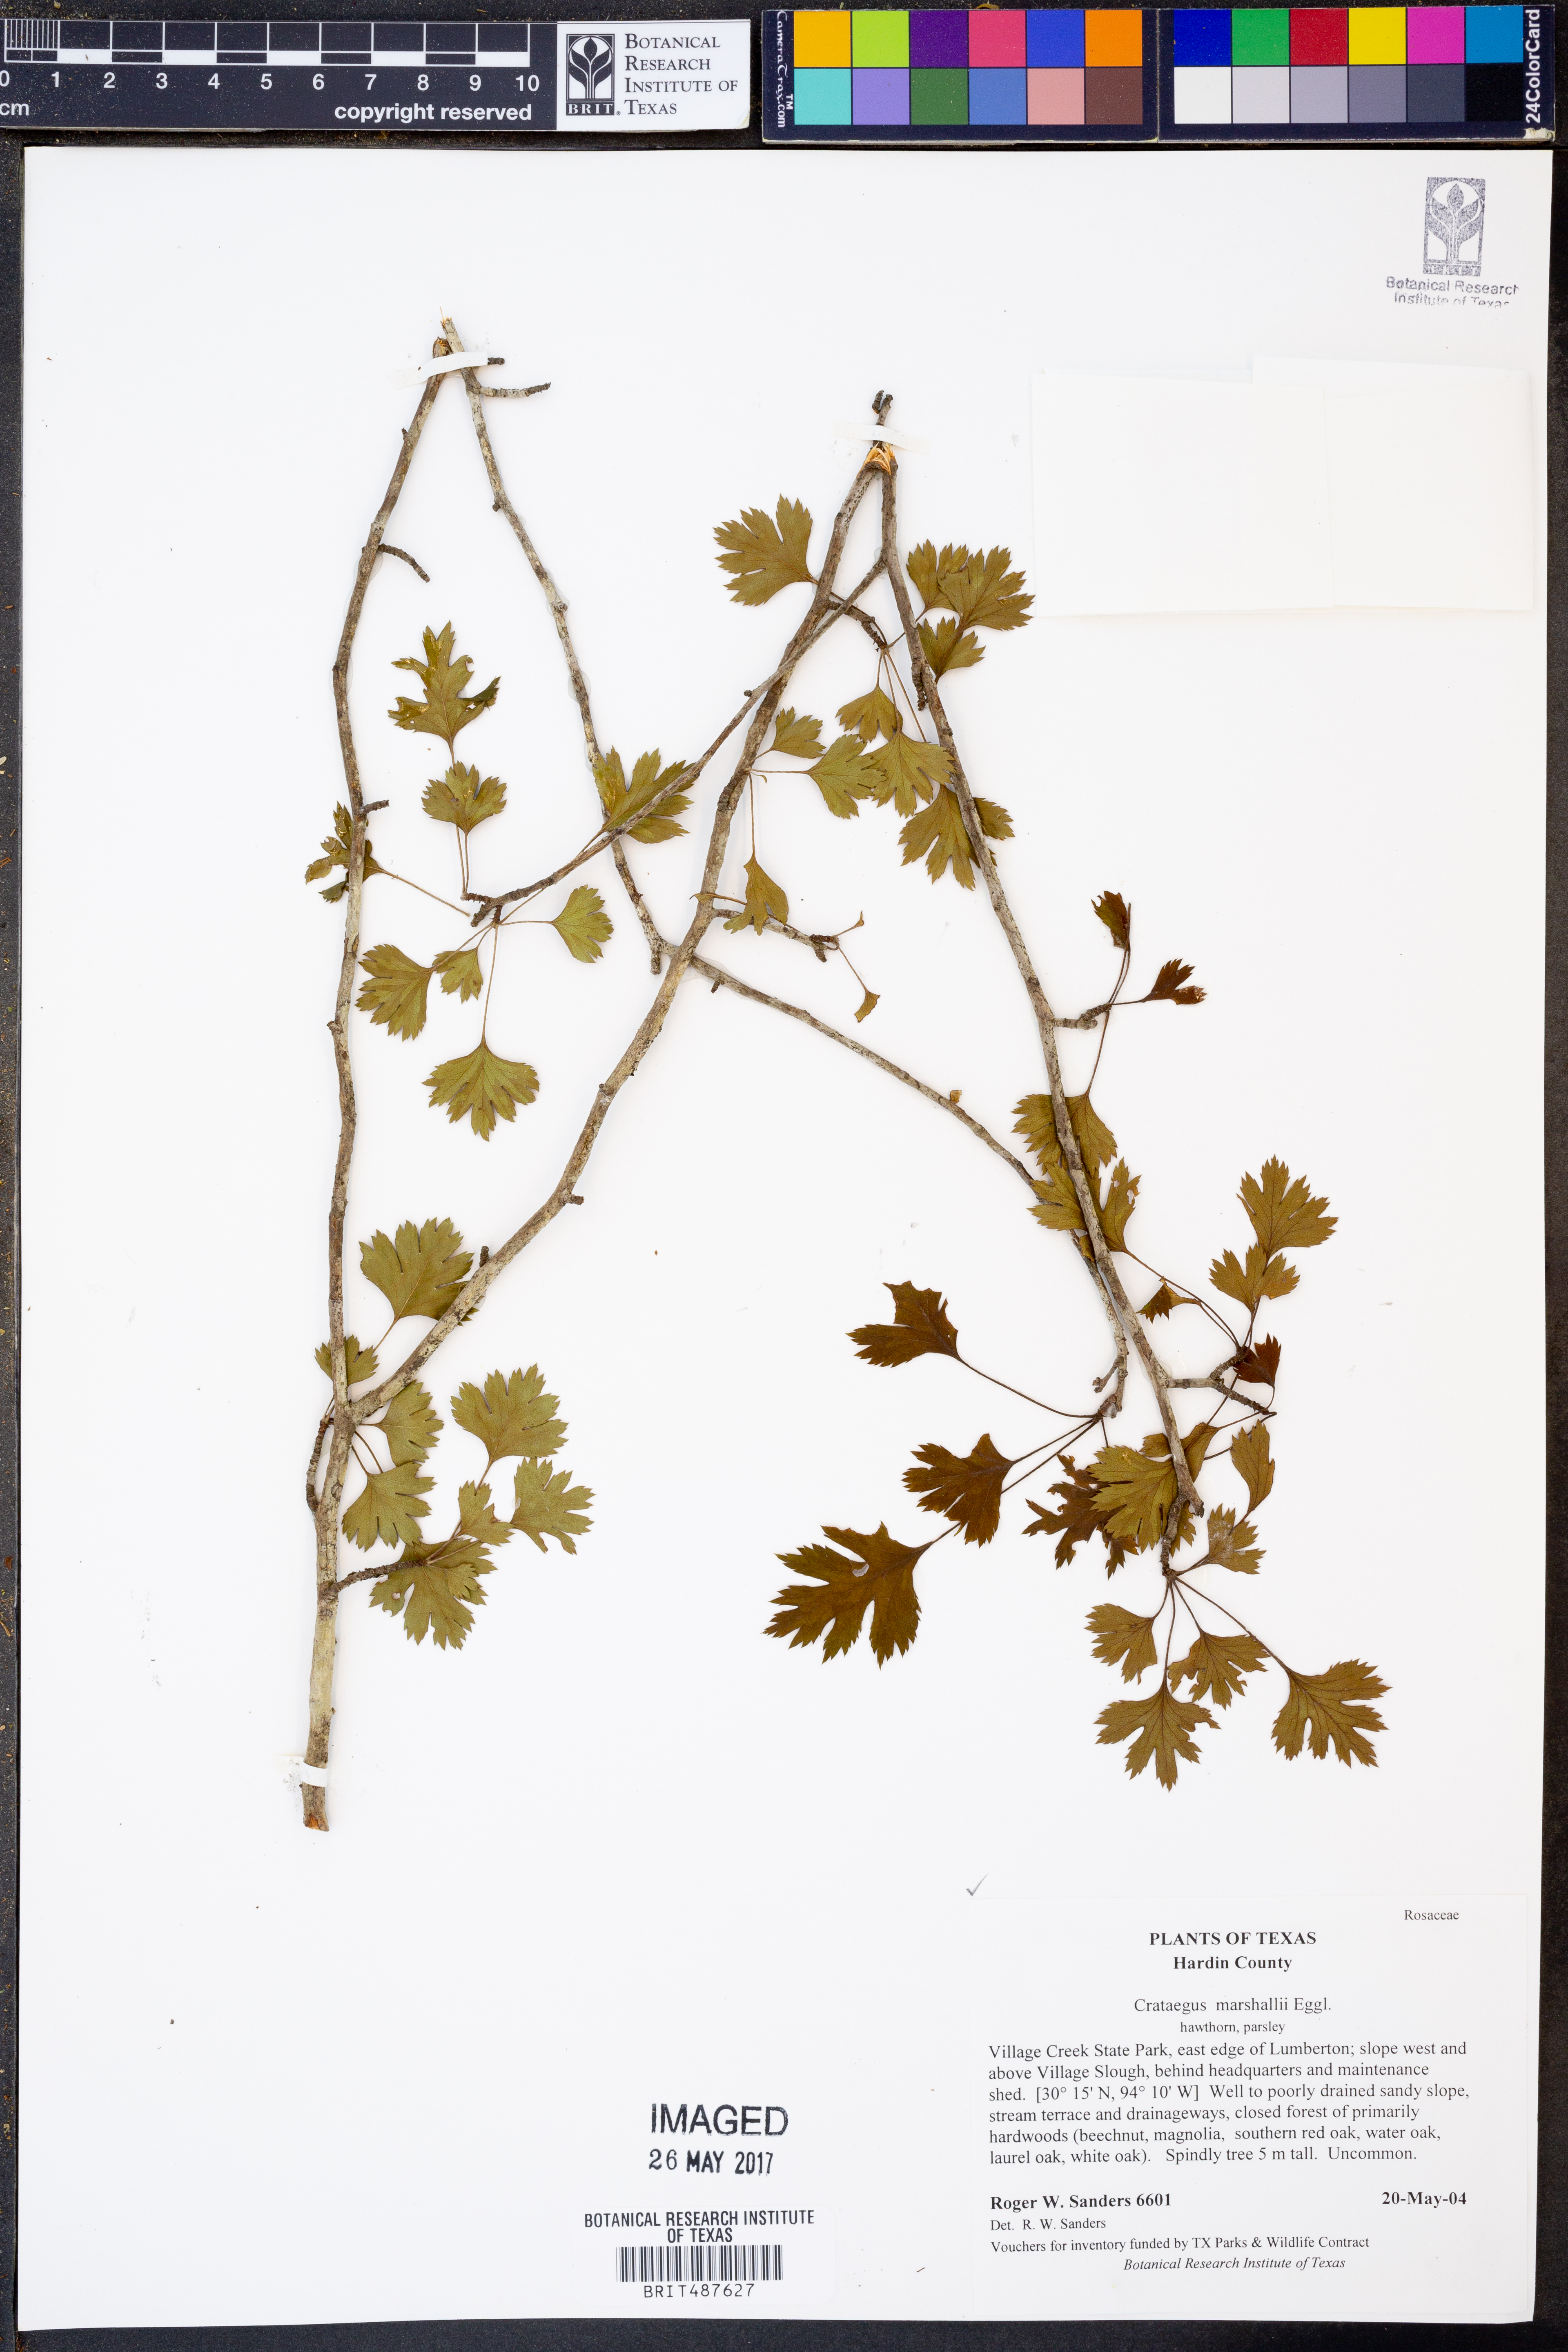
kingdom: Plantae
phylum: Tracheophyta
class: Magnoliopsida
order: Rosales
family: Rosaceae
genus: Crataegus
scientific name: Crataegus marshallii
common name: Parsley-hawthorn
